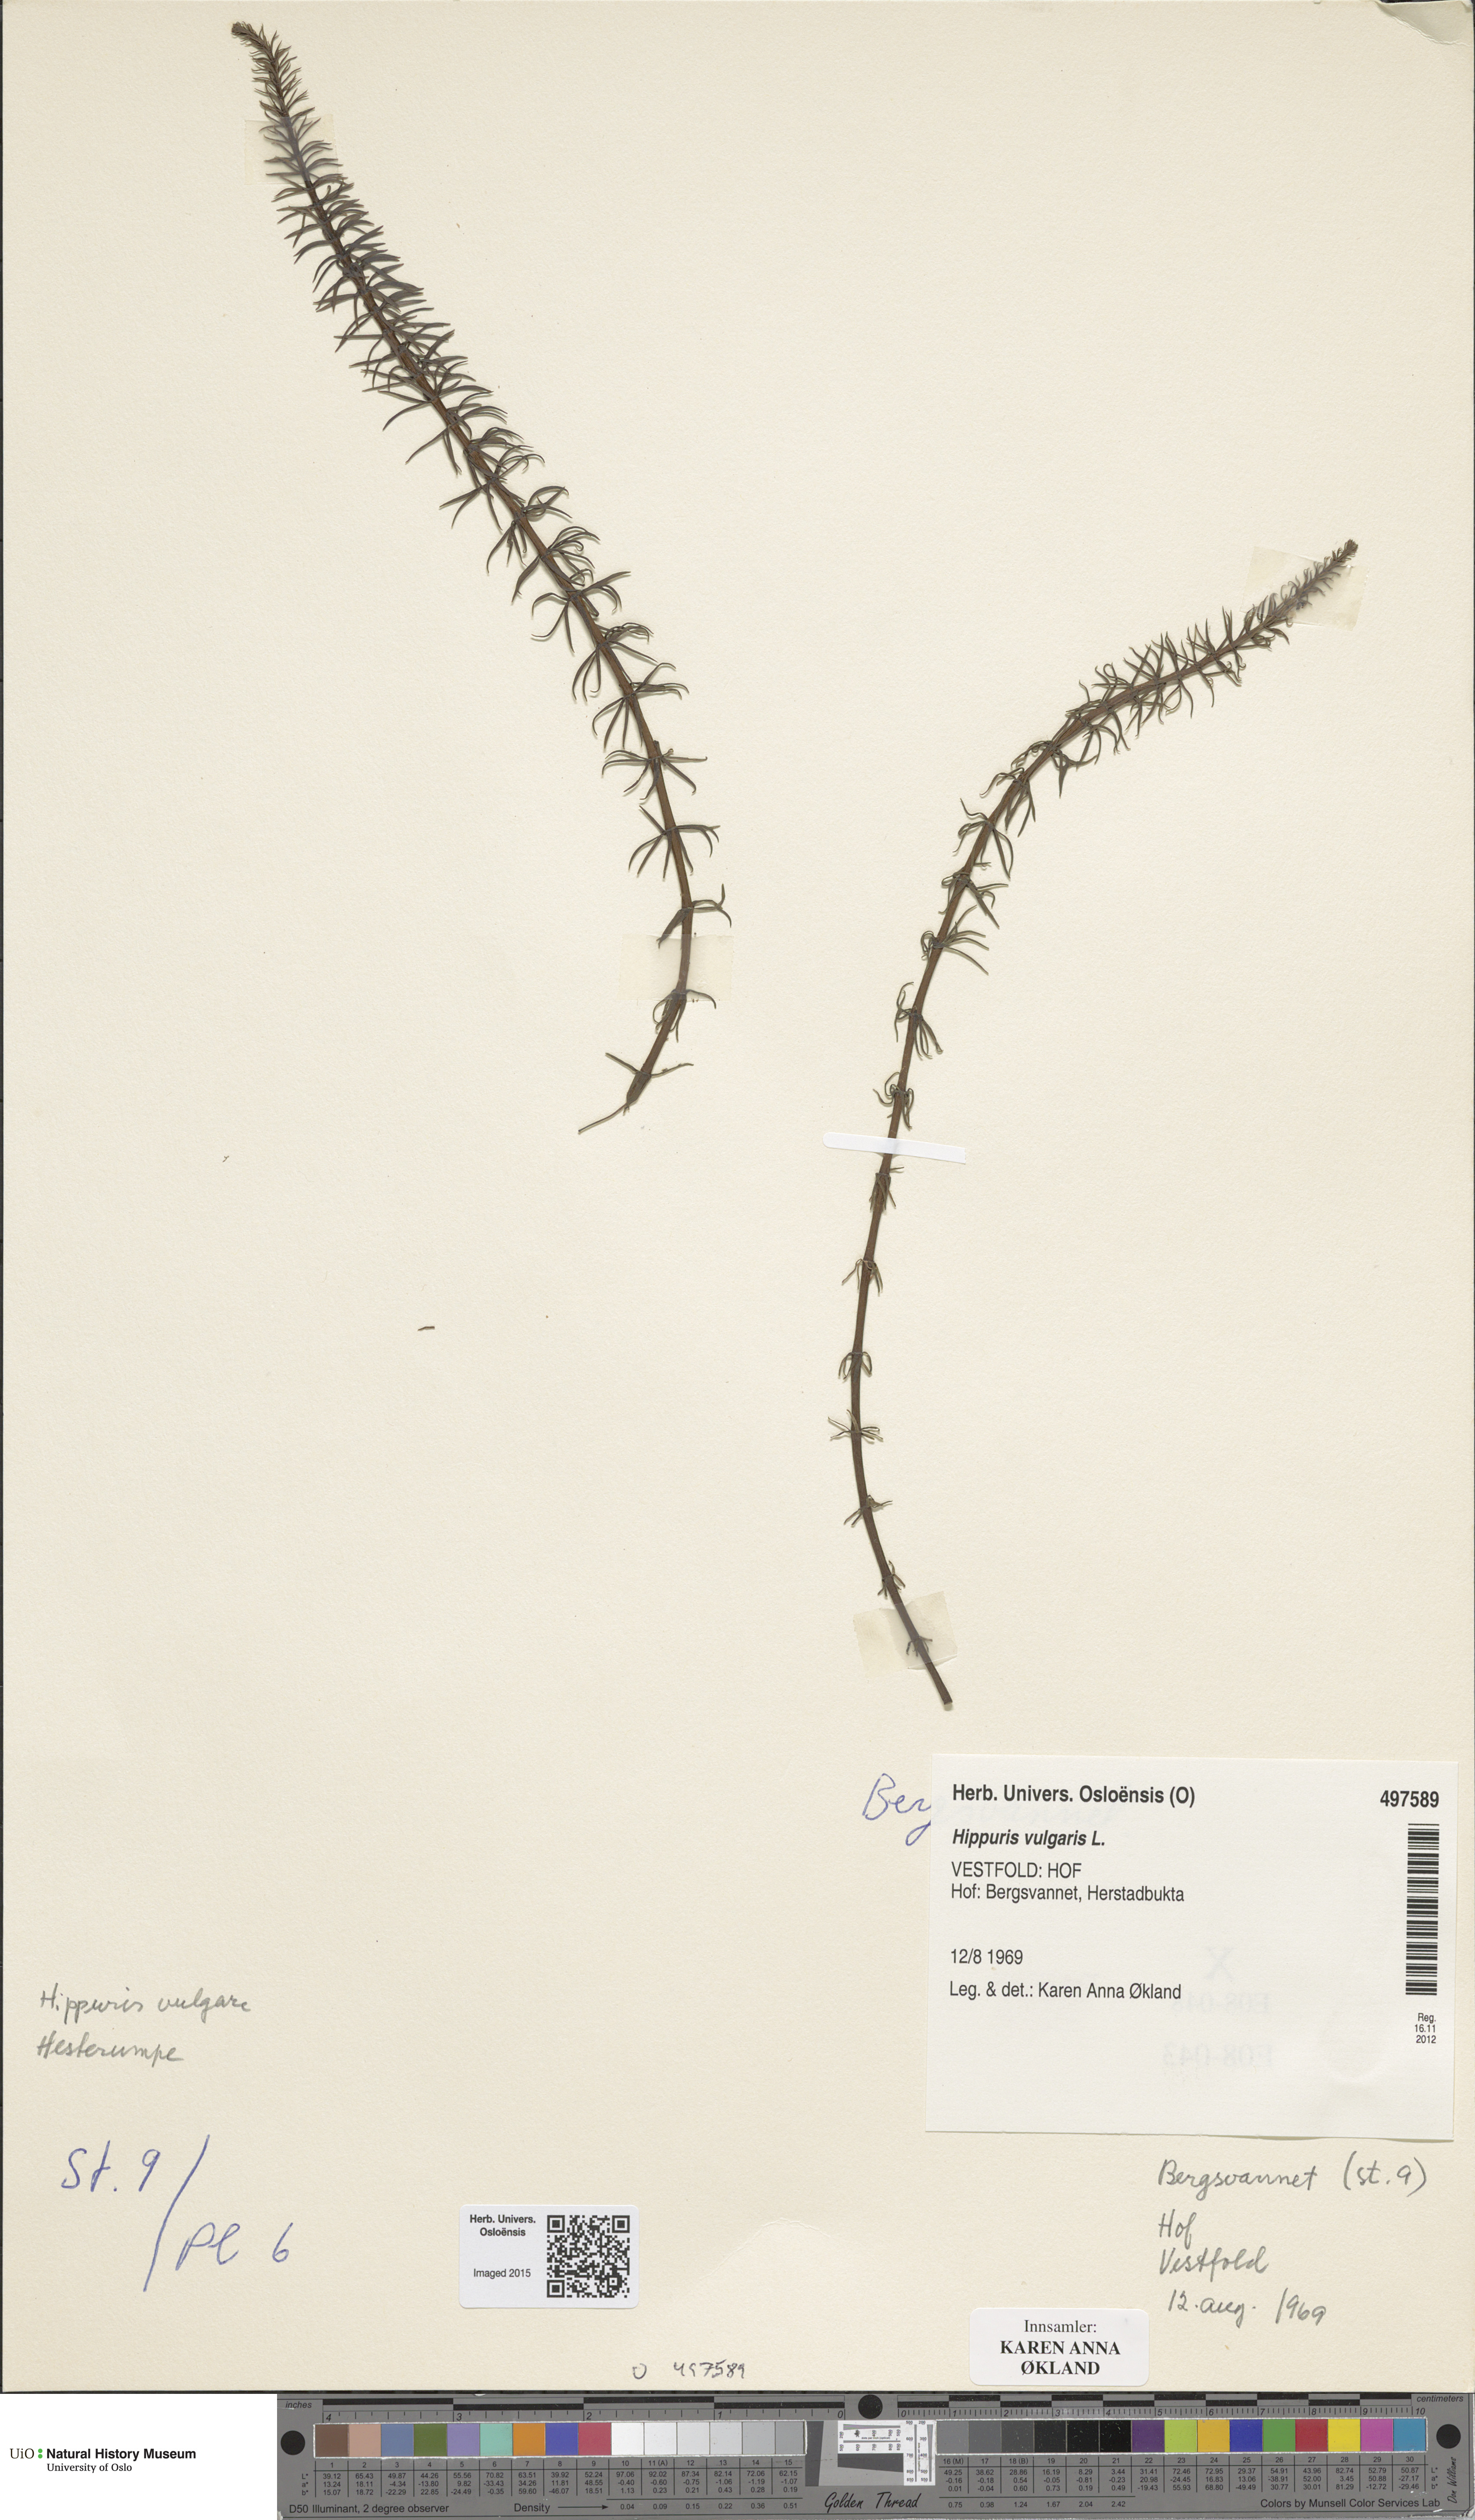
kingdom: Plantae
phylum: Tracheophyta
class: Magnoliopsida
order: Lamiales
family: Plantaginaceae
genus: Hippuris
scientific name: Hippuris vulgaris
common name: Mare's-tail
